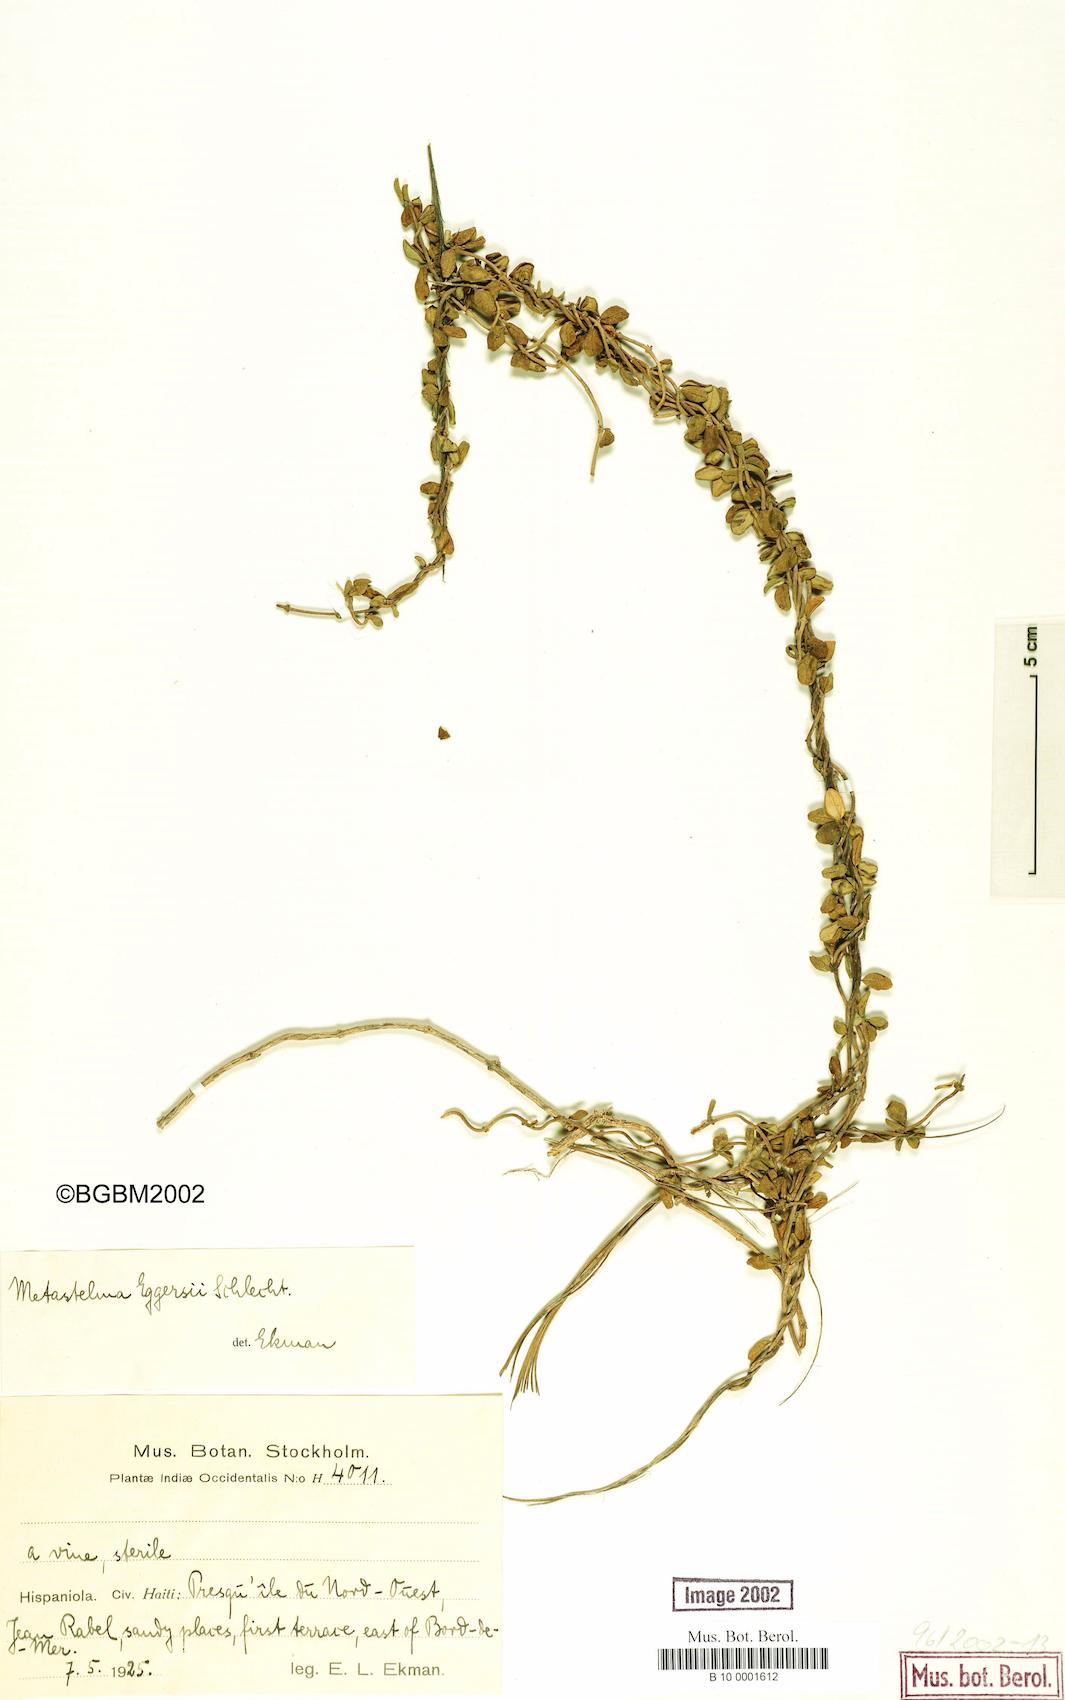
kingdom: Plantae
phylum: Tracheophyta
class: Magnoliopsida
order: Gentianales
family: Apocynaceae
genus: Anemotrochus
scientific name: Anemotrochus eggersii
